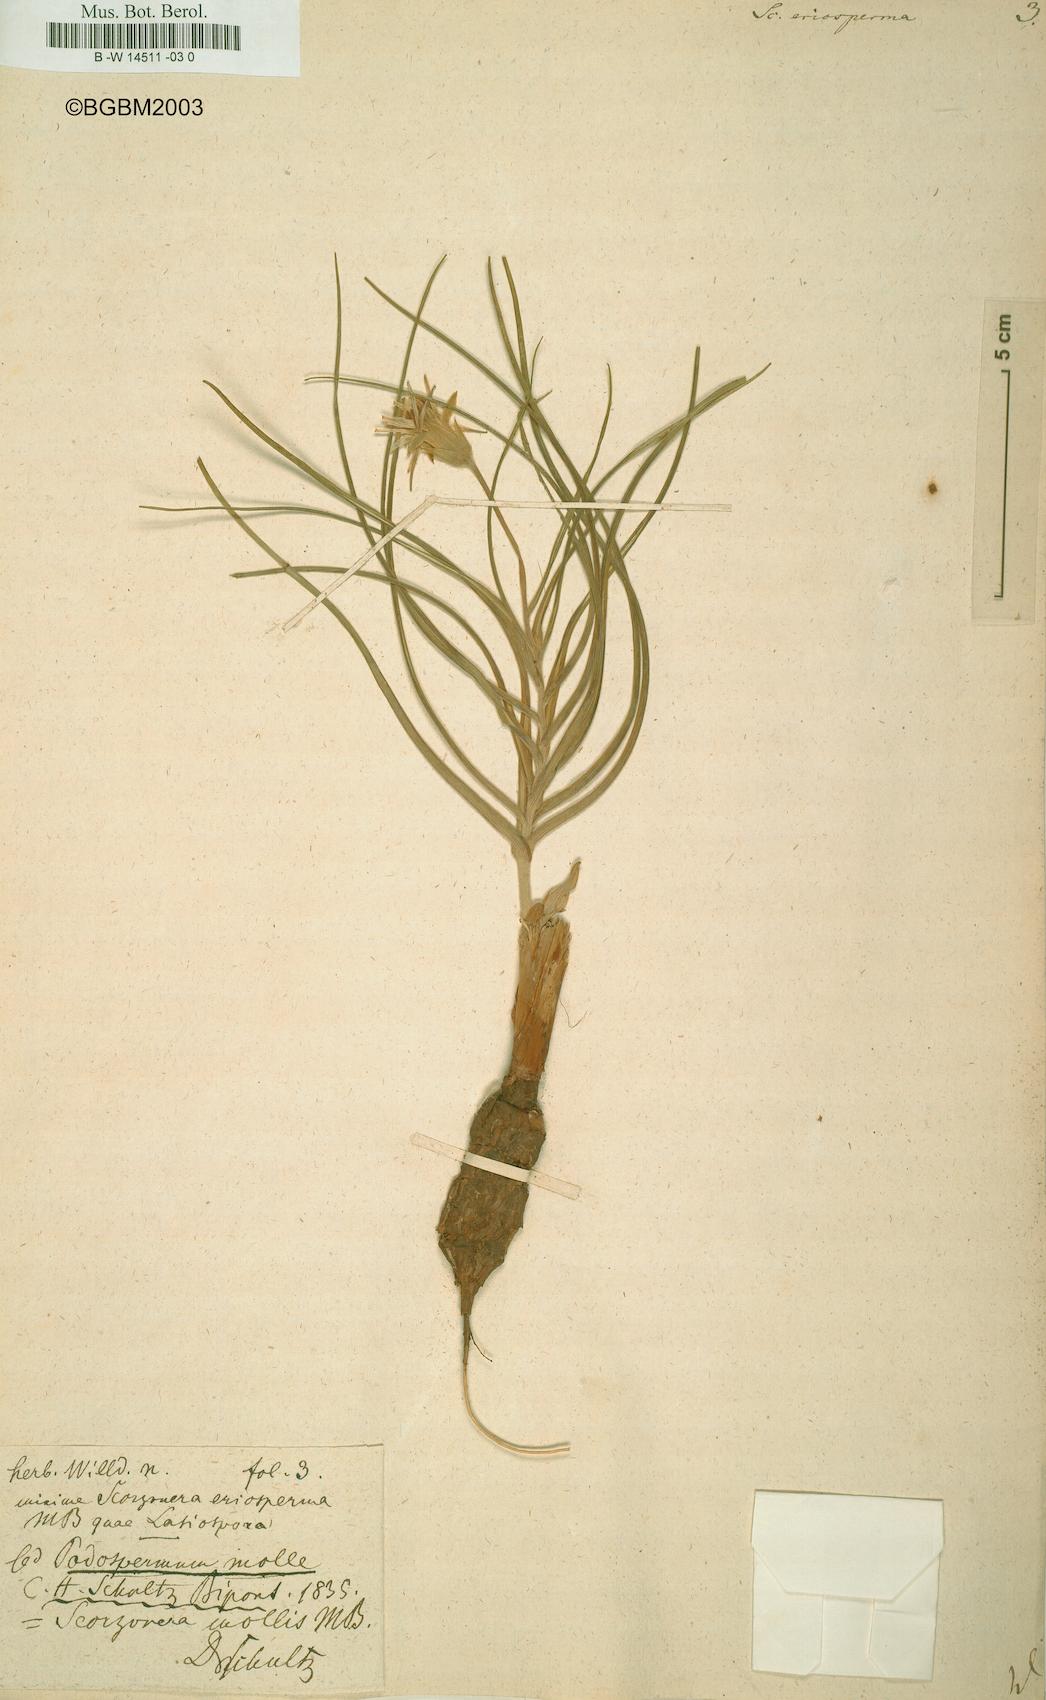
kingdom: Plantae
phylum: Tracheophyta
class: Magnoliopsida
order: Asterales
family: Asteraceae
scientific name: Asteraceae
